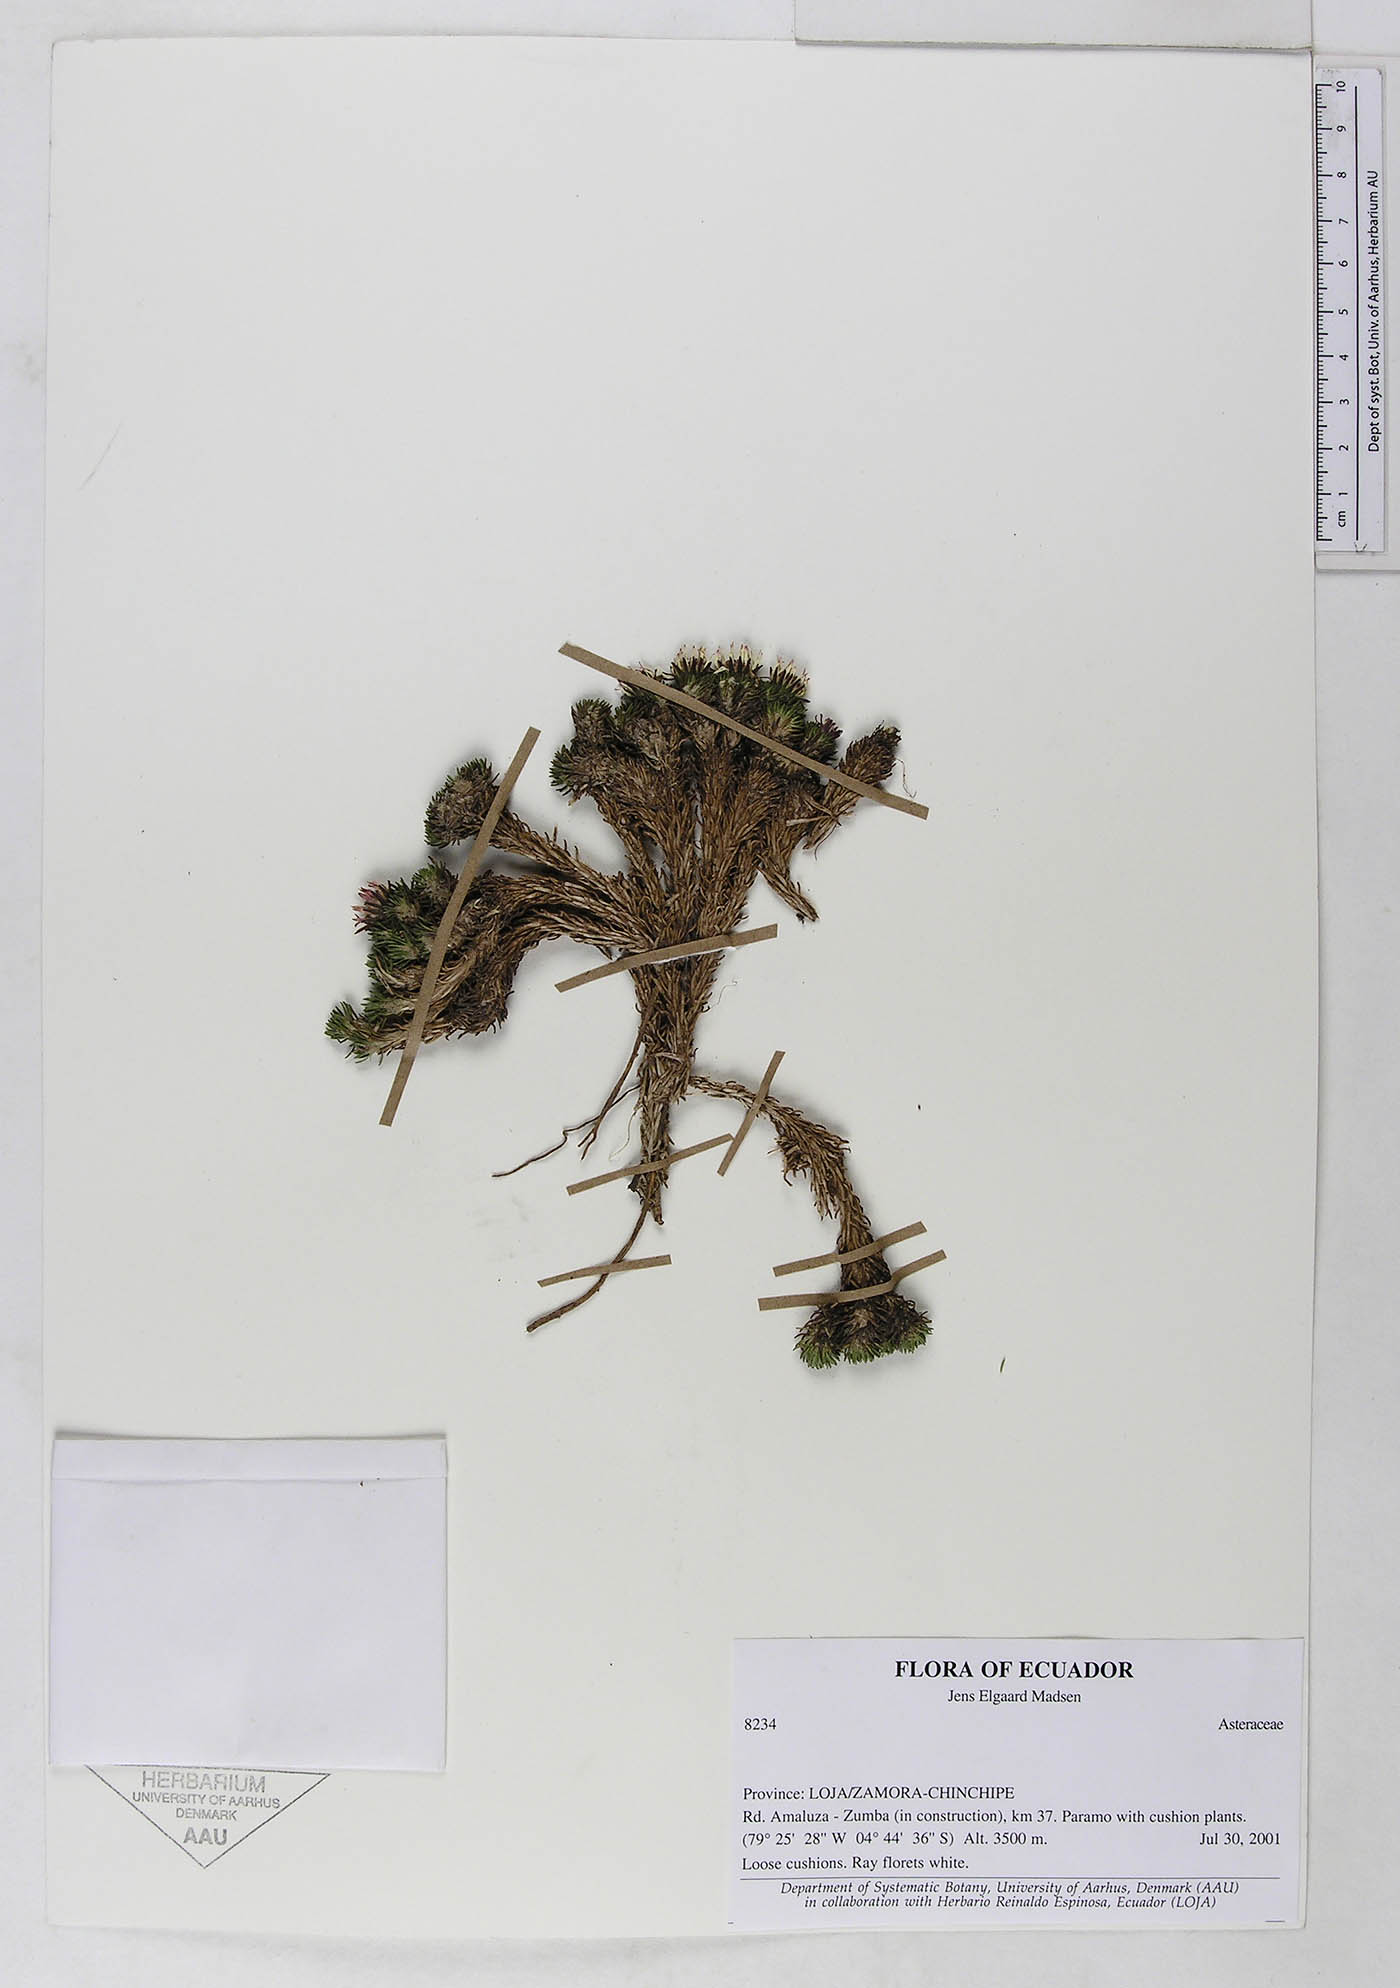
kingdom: Plantae
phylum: Tracheophyta
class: Magnoliopsida
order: Asterales
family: Asteraceae
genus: Werneria
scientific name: Werneria humilis
